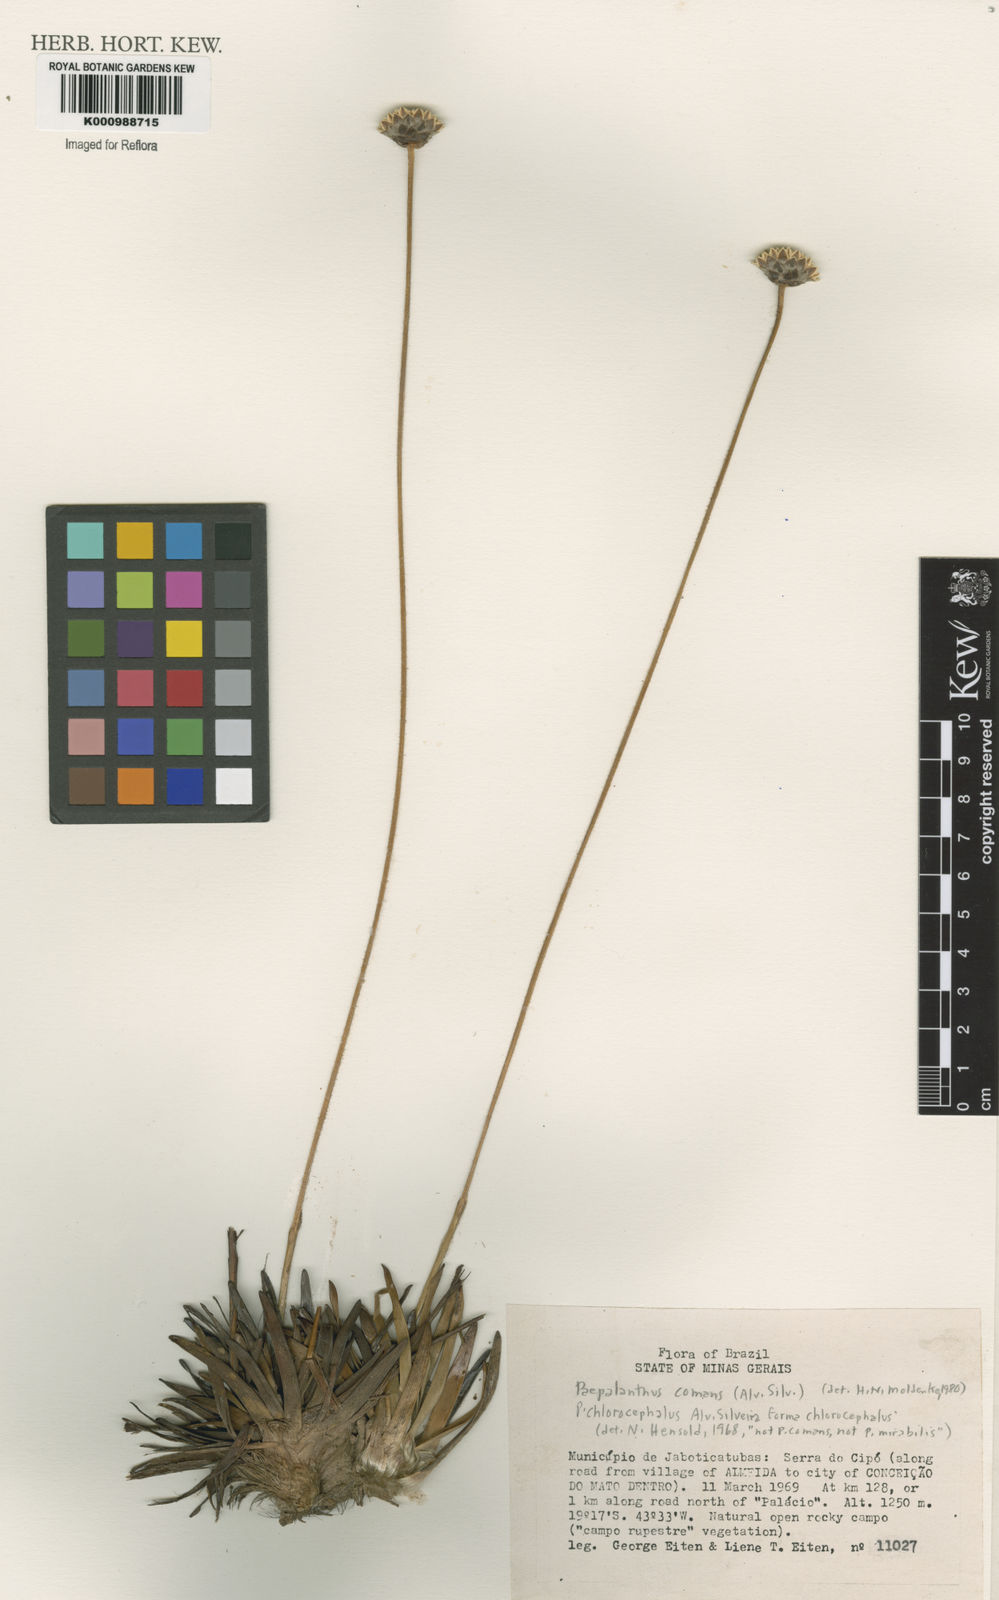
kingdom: Plantae
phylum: Tracheophyta
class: Liliopsida
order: Poales
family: Eriocaulaceae
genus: Paepalanthus
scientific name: Paepalanthus chlorocephalus
